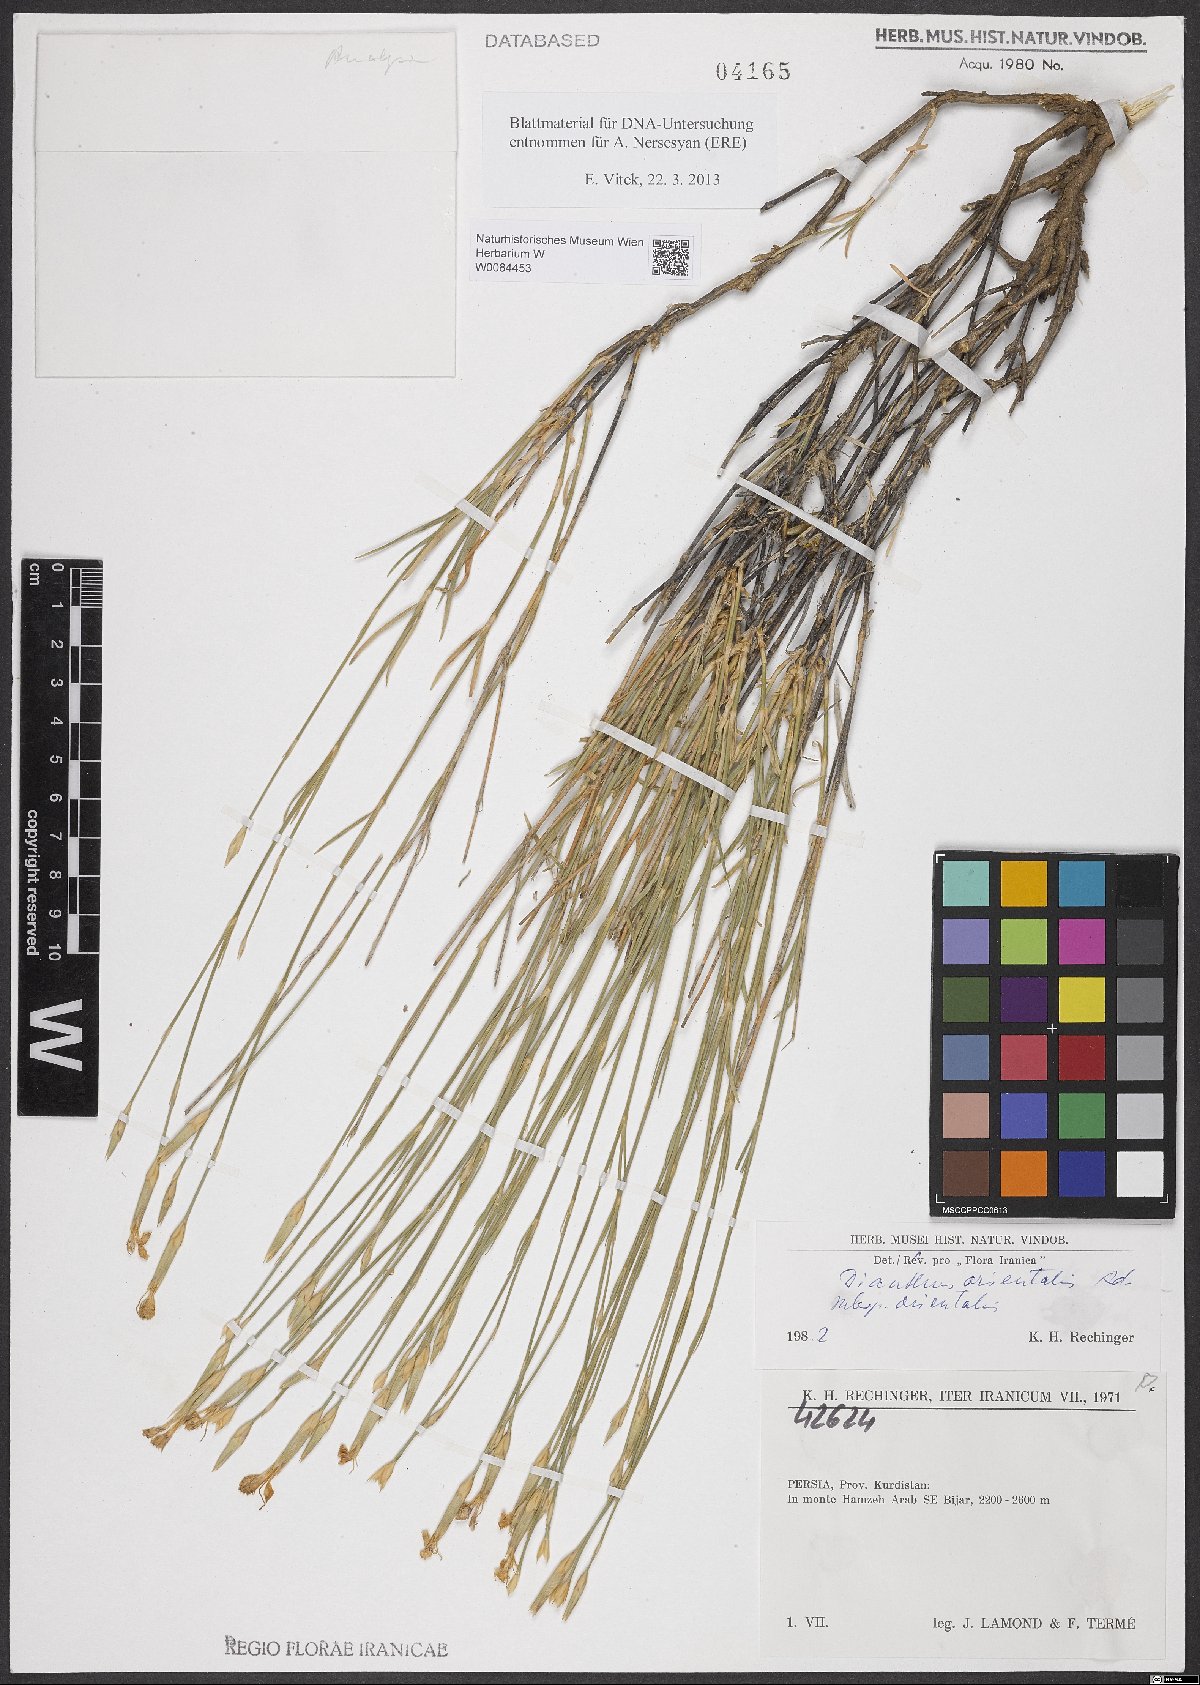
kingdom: Plantae
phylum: Tracheophyta
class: Magnoliopsida
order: Caryophyllales
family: Caryophyllaceae
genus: Dianthus
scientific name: Dianthus orientalis
